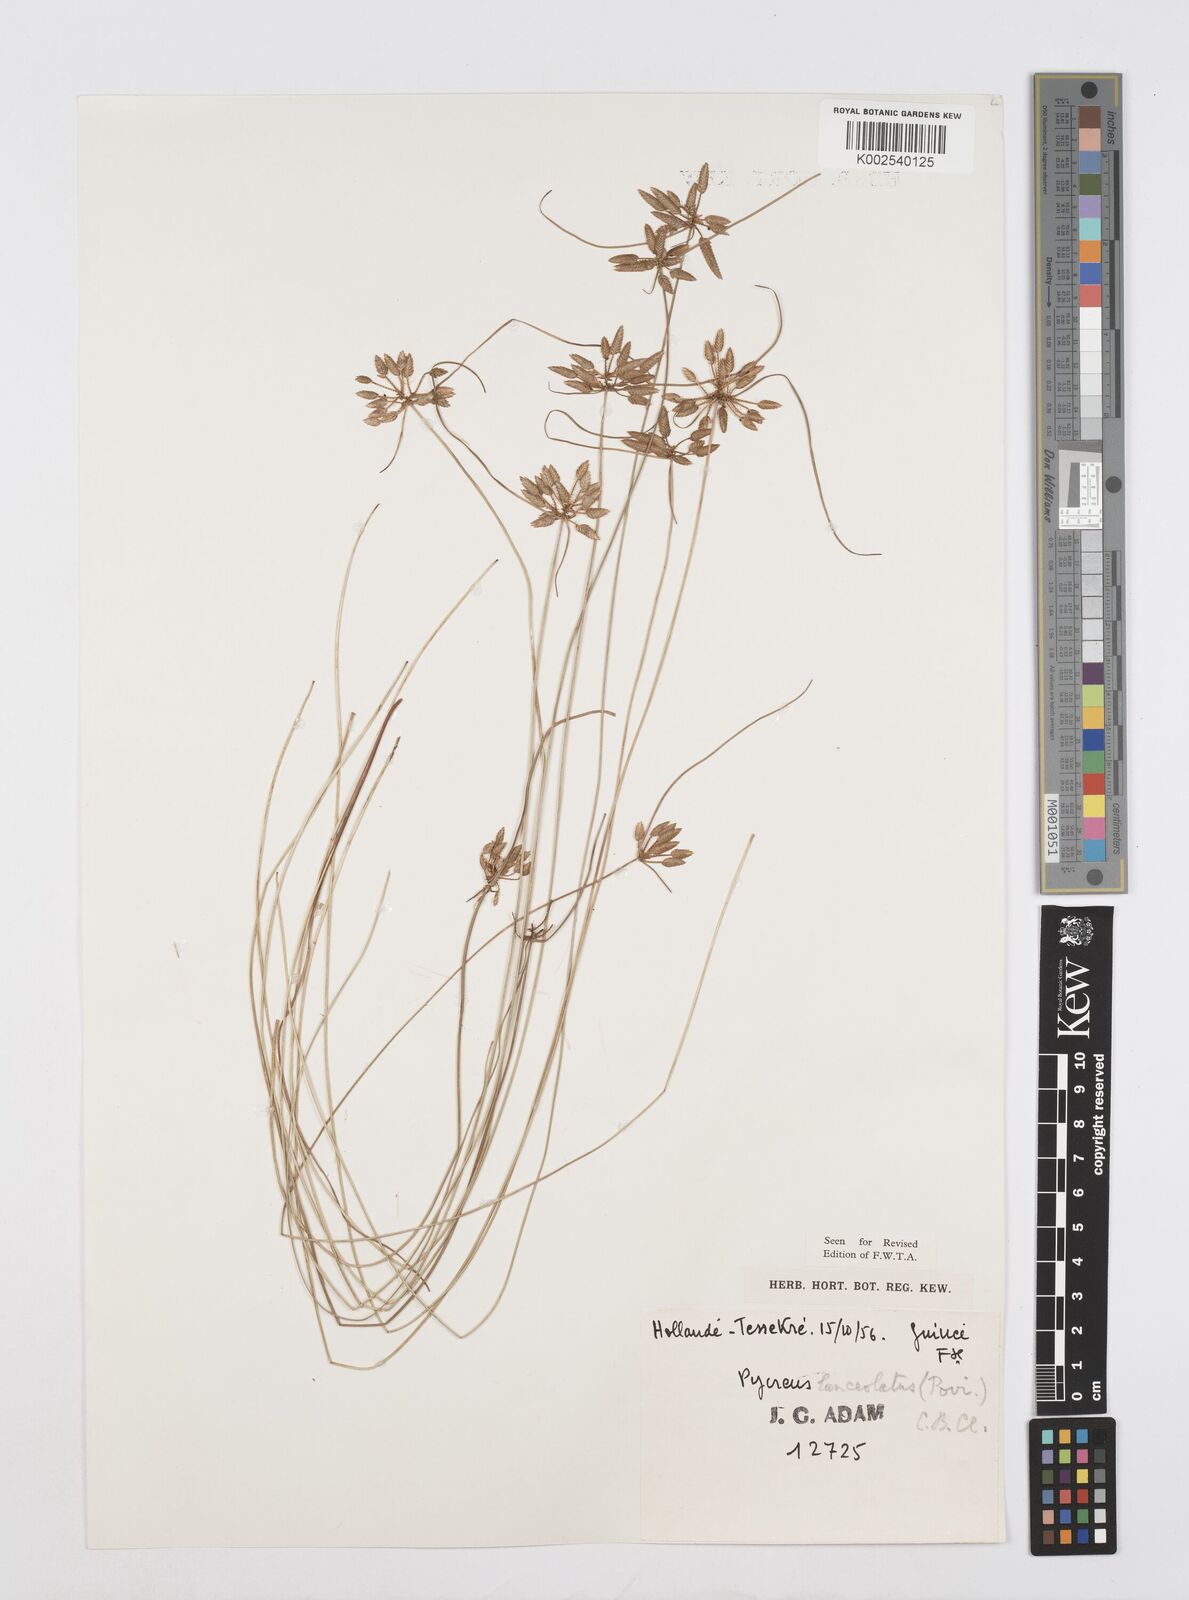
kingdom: Plantae
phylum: Tracheophyta
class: Liliopsida
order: Poales
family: Cyperaceae
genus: Cyperus
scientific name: Cyperus
